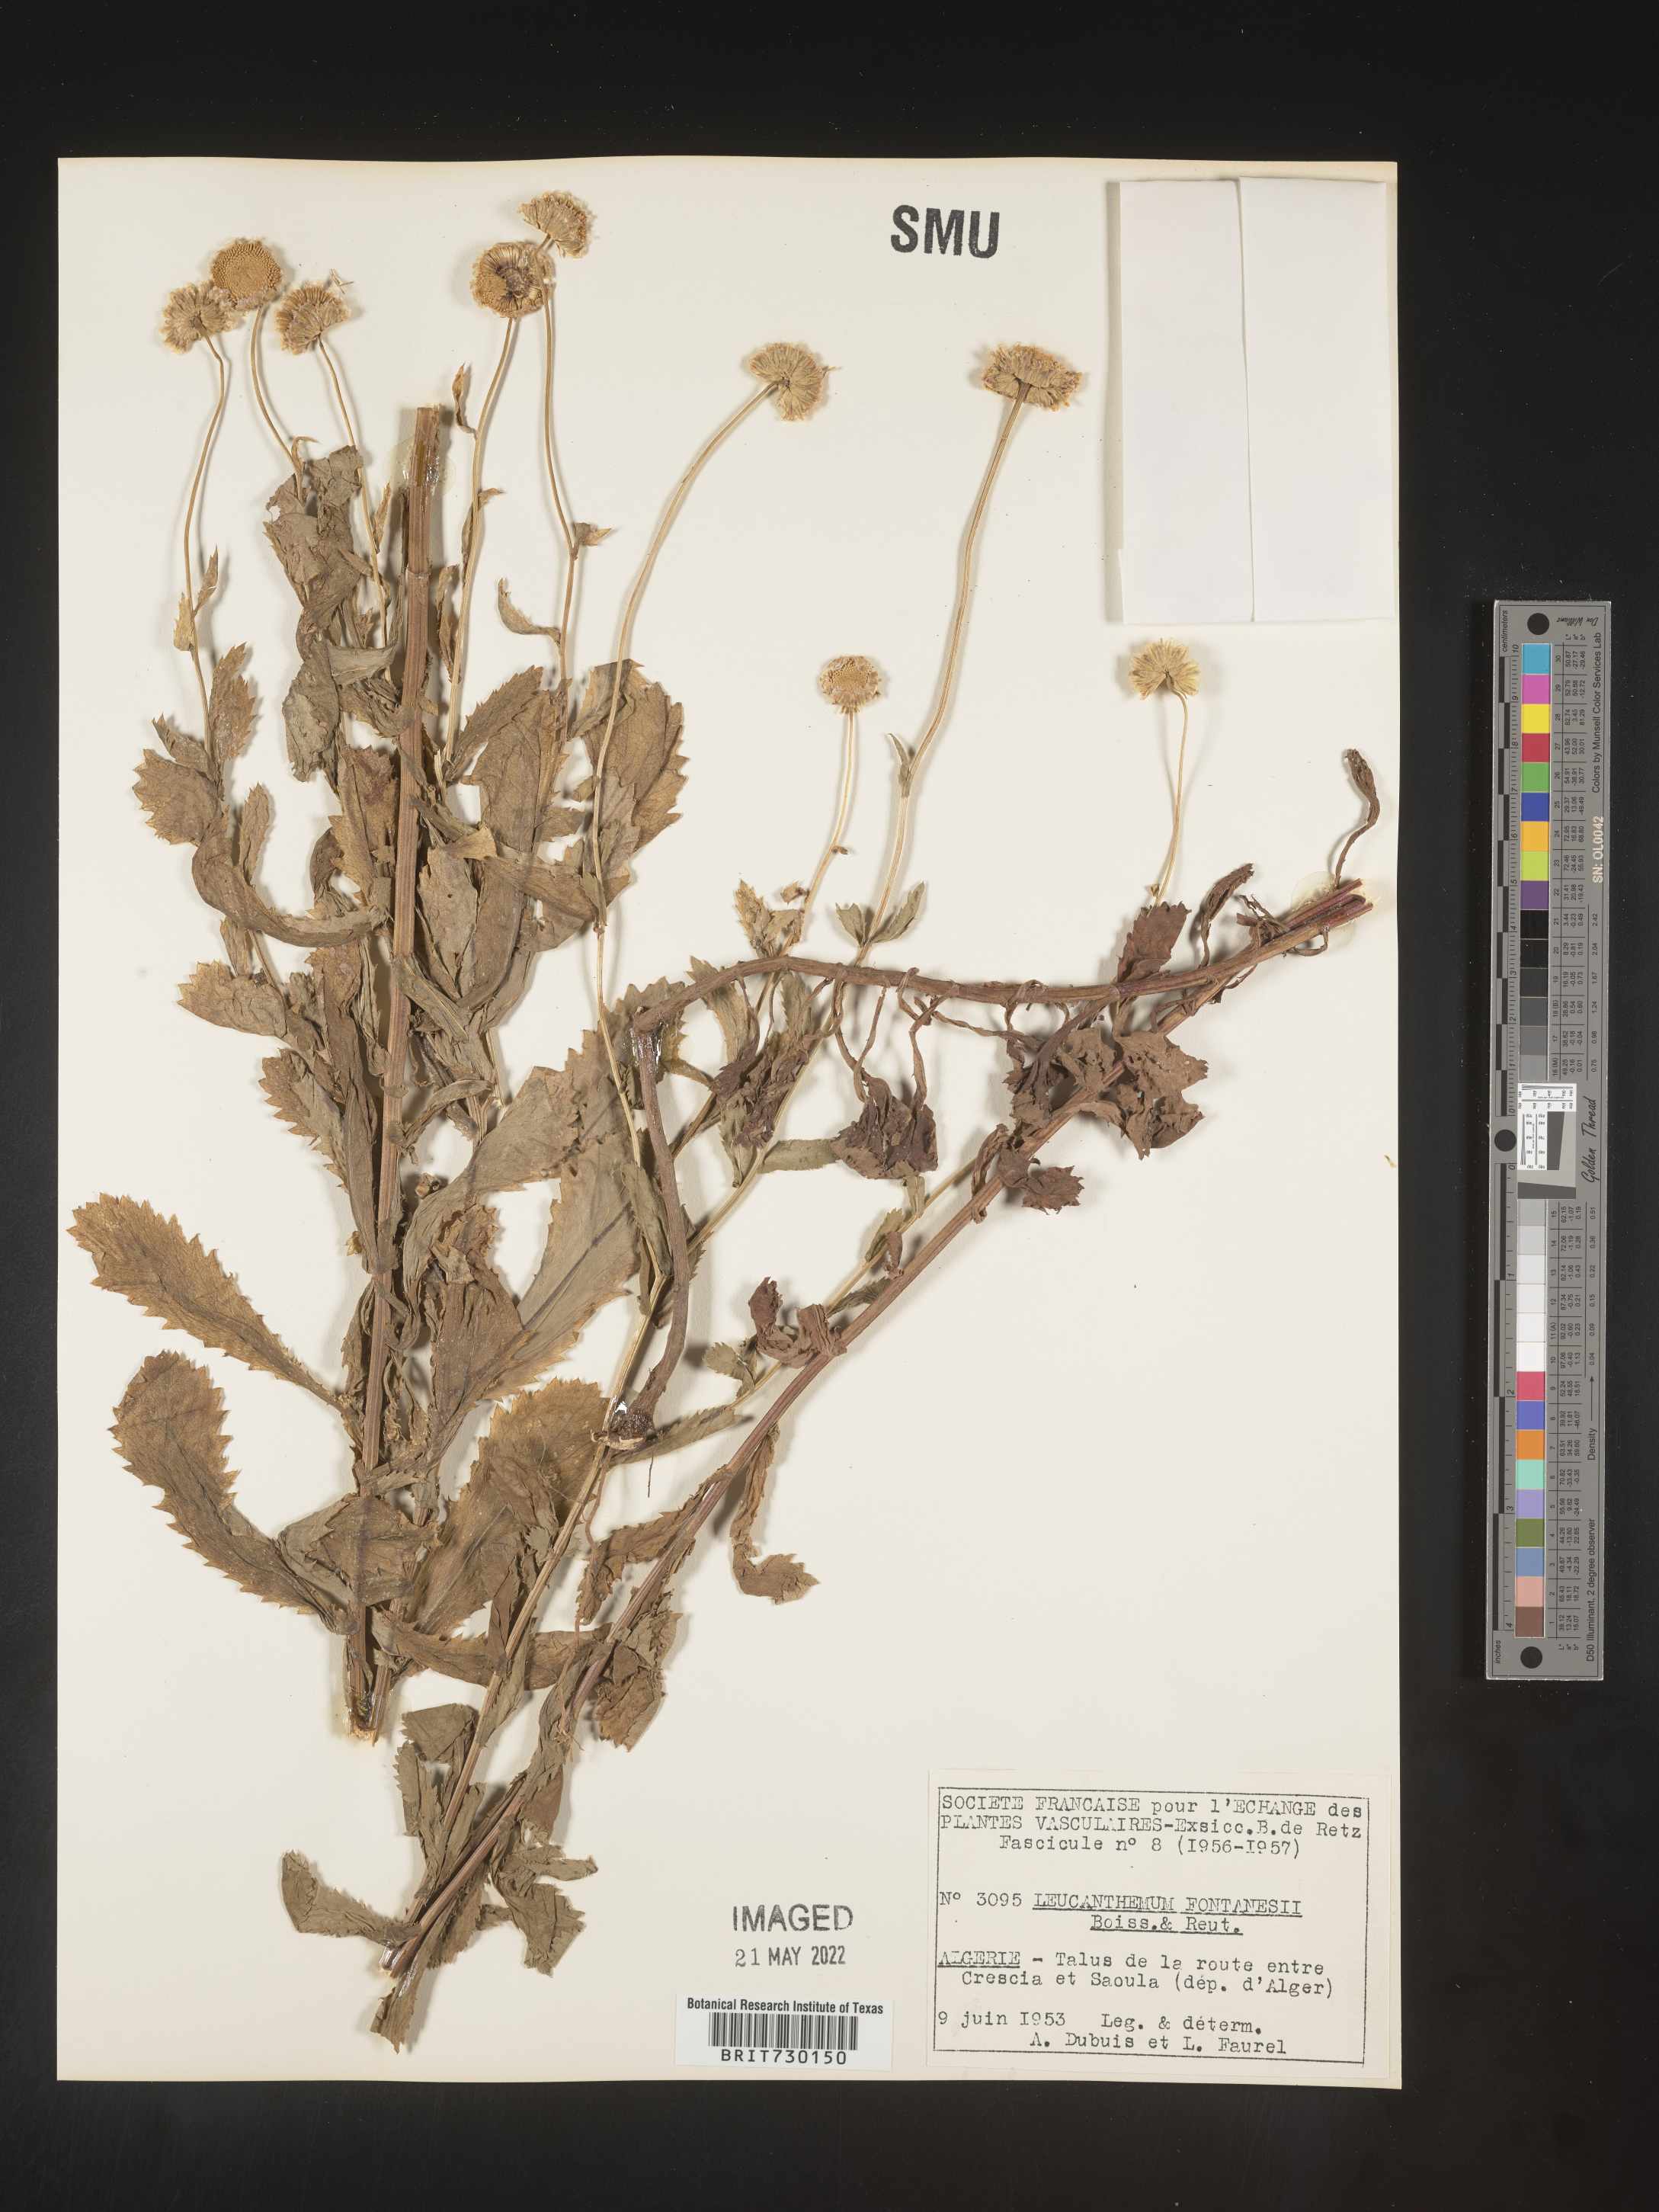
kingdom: Plantae
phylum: Tracheophyta
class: Magnoliopsida
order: Asterales
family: Asteraceae
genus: Leucanthemum
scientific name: Leucanthemum
